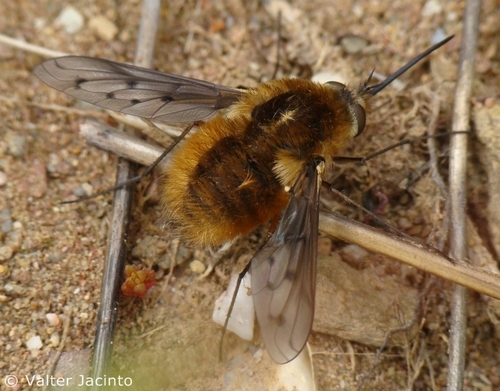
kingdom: Animalia
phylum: Arthropoda
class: Insecta
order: Diptera
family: Bombyliidae
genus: Bombylius
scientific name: Bombylius pardalotus
